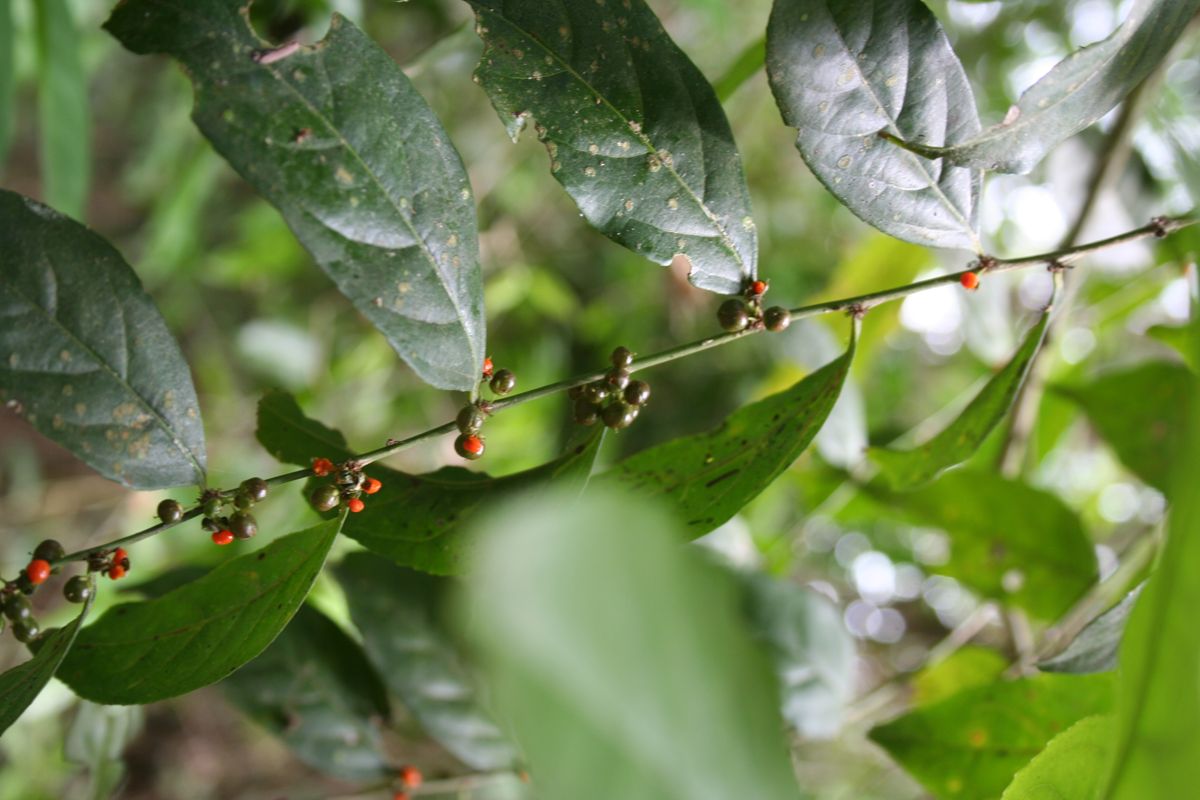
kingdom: Plantae
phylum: Tracheophyta
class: Magnoliopsida
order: Malpighiales
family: Salicaceae
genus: Casearia
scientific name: Casearia sylvestris
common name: Wild sage
